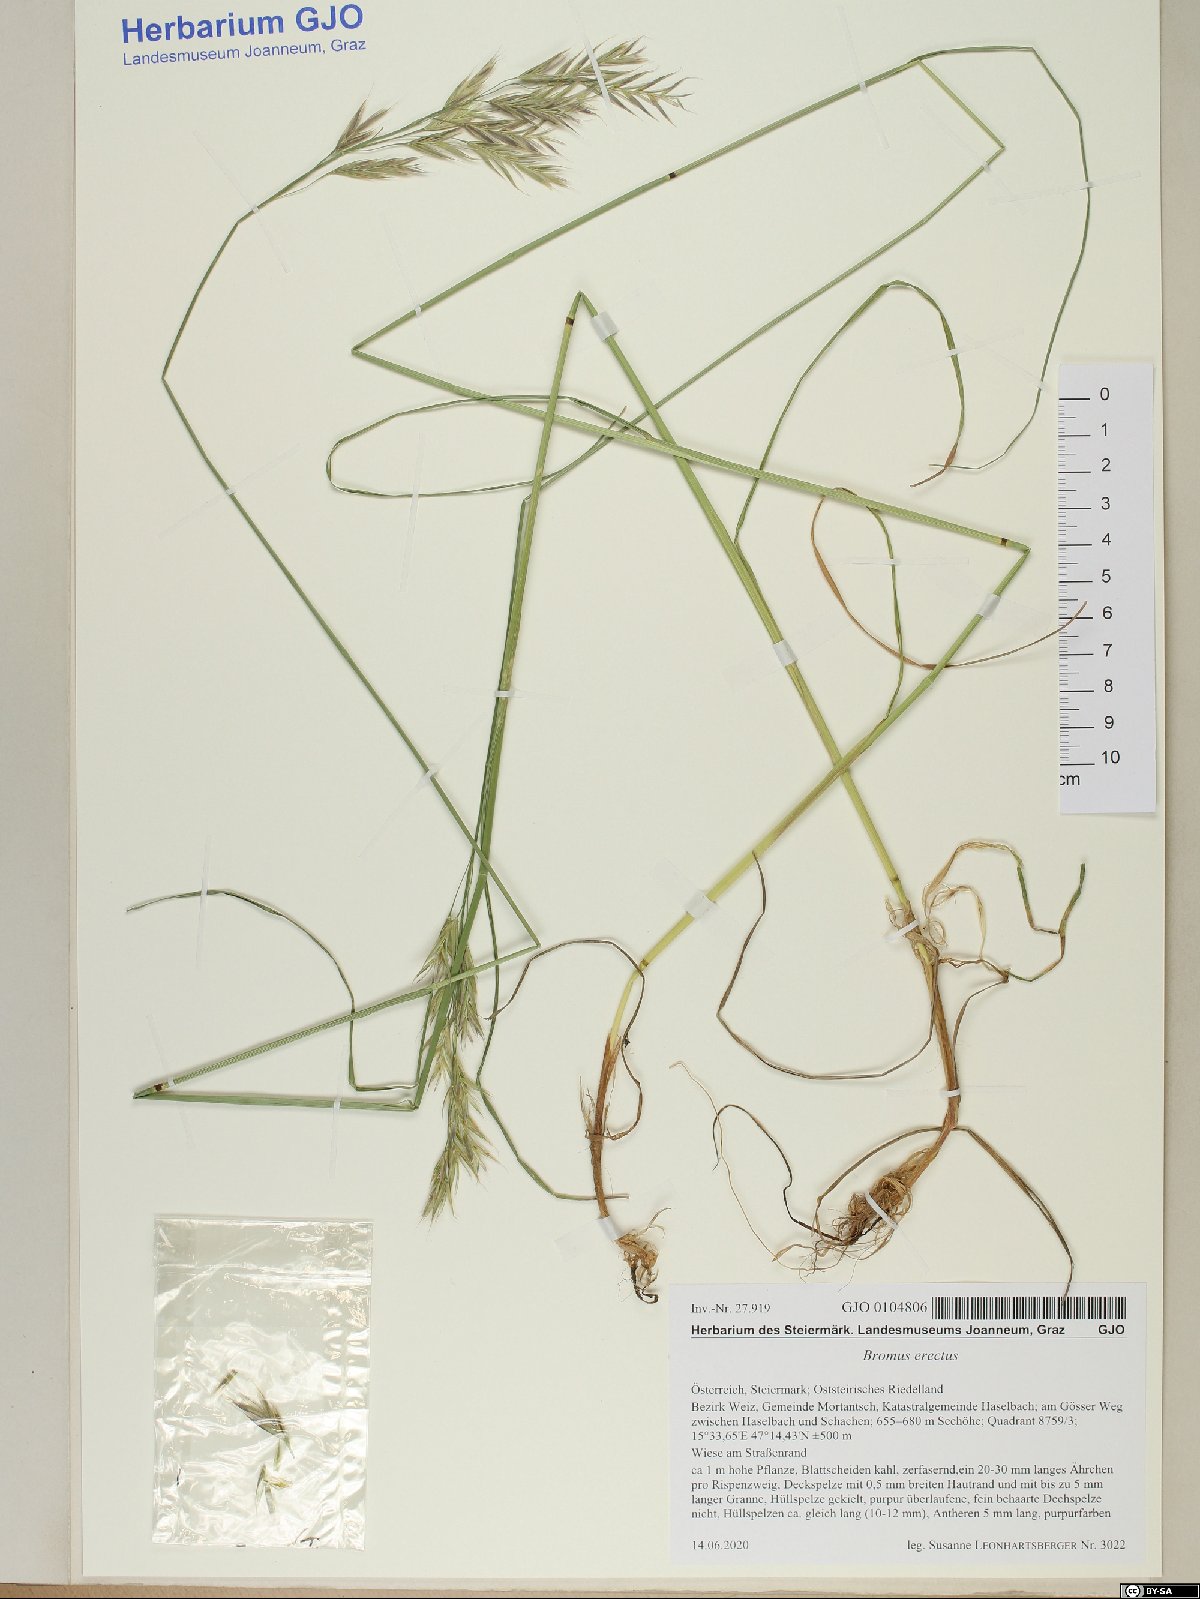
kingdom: Plantae
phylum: Tracheophyta
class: Liliopsida
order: Poales
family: Poaceae
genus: Bromus
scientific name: Bromus erectus
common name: Erect brome
